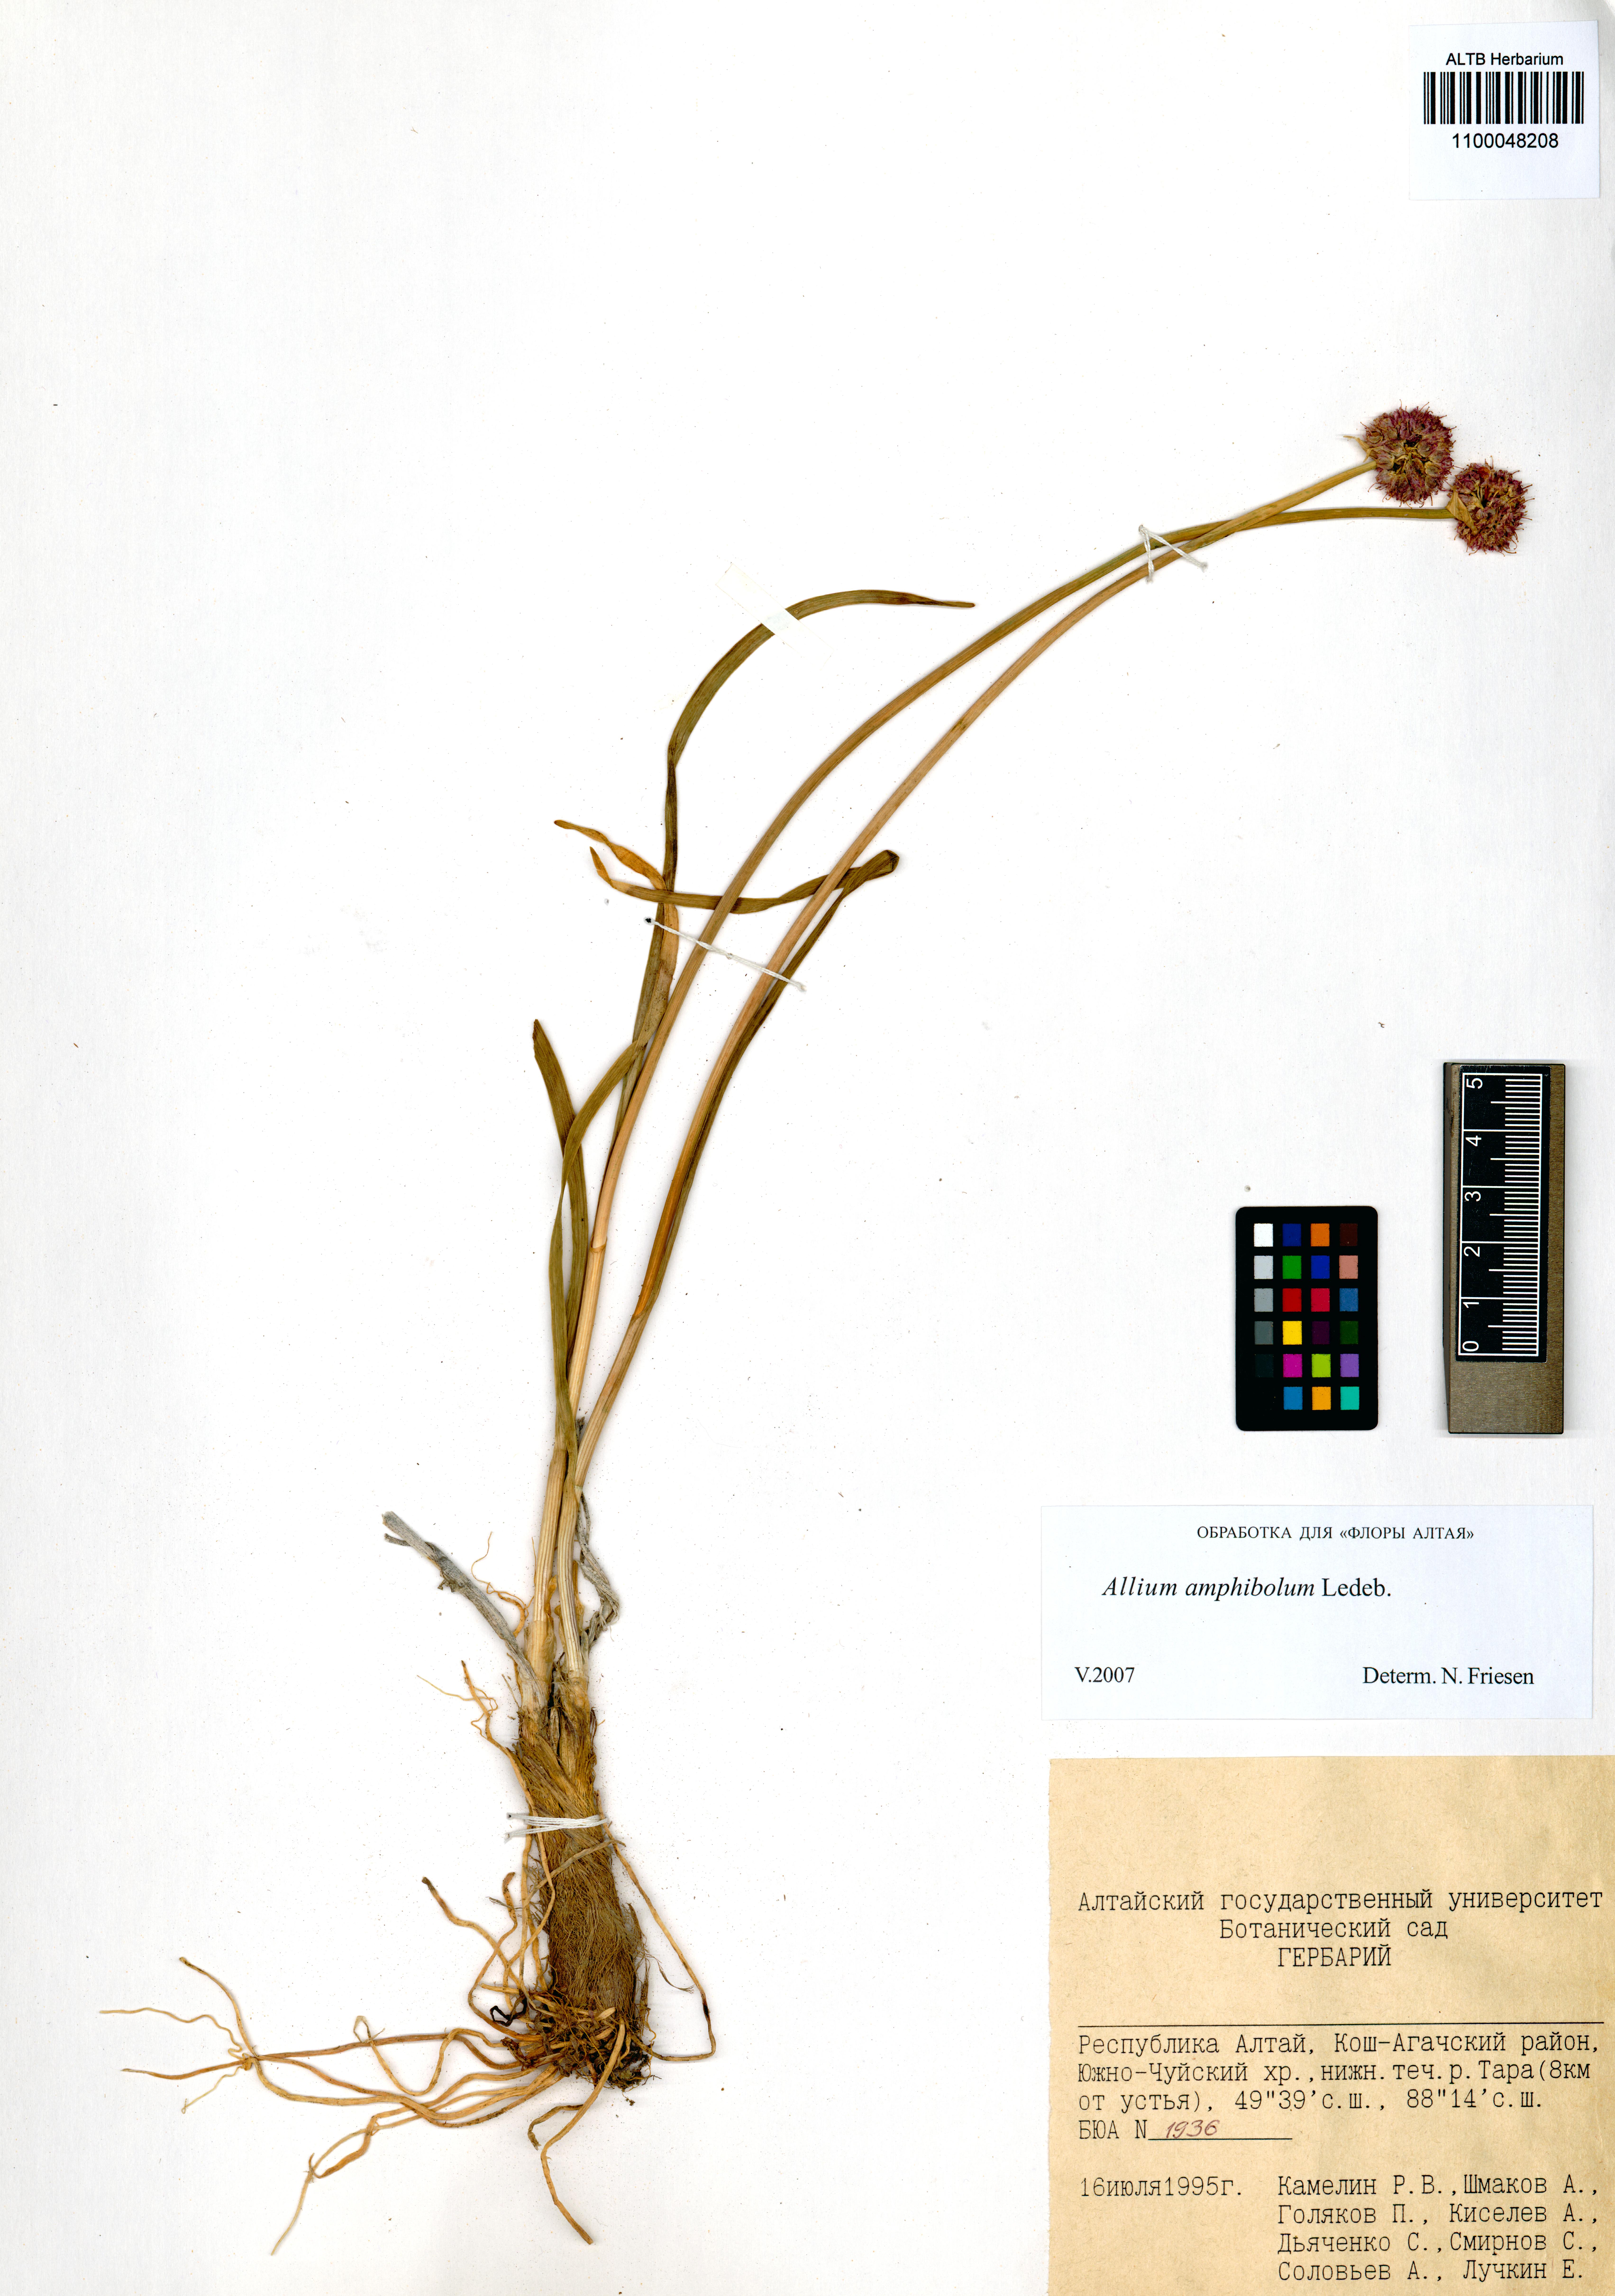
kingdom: Plantae
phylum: Tracheophyta
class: Liliopsida
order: Asparagales
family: Amaryllidaceae
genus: Allium
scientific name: Allium amphibolum
